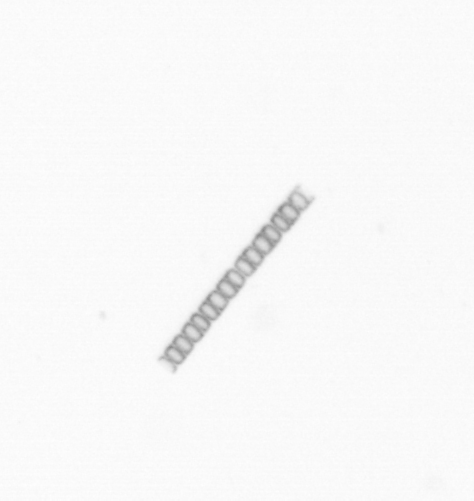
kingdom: Chromista
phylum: Ochrophyta
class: Bacillariophyceae
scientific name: Bacillariophyceae
